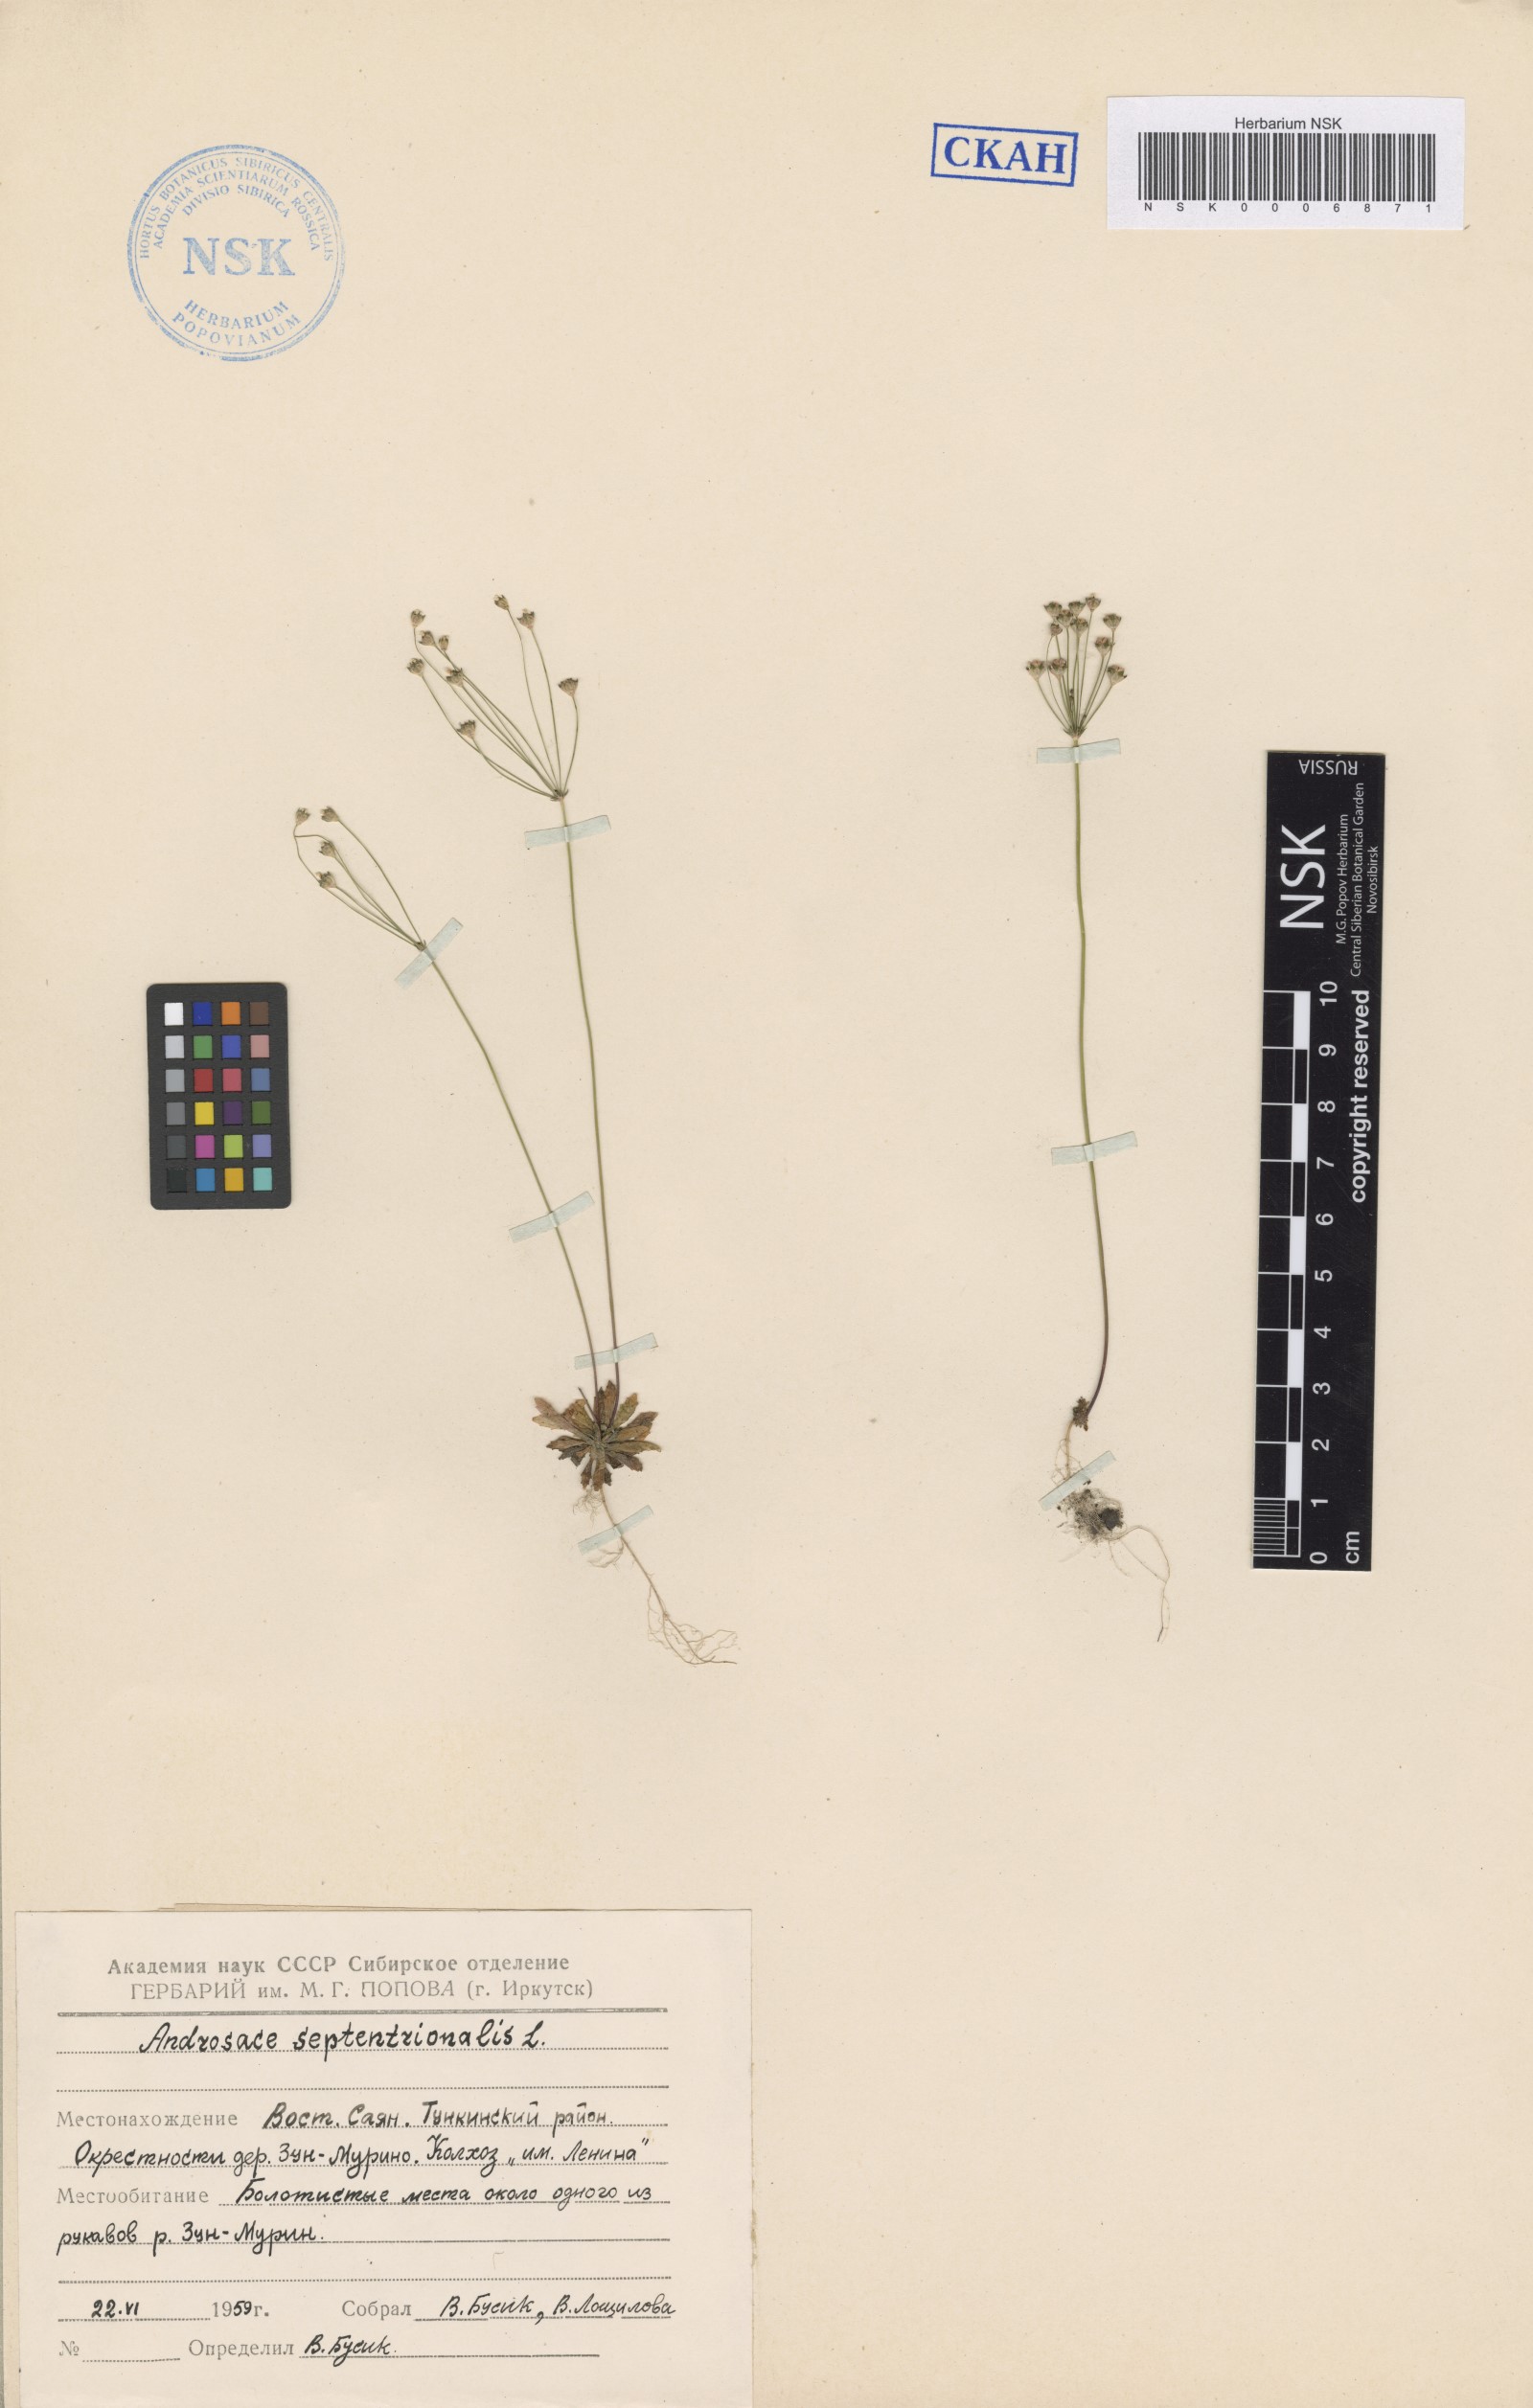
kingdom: Plantae
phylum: Tracheophyta
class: Magnoliopsida
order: Ericales
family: Primulaceae
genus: Androsace
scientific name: Androsace septentrionalis
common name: Hairy northern fairy-candelabra
